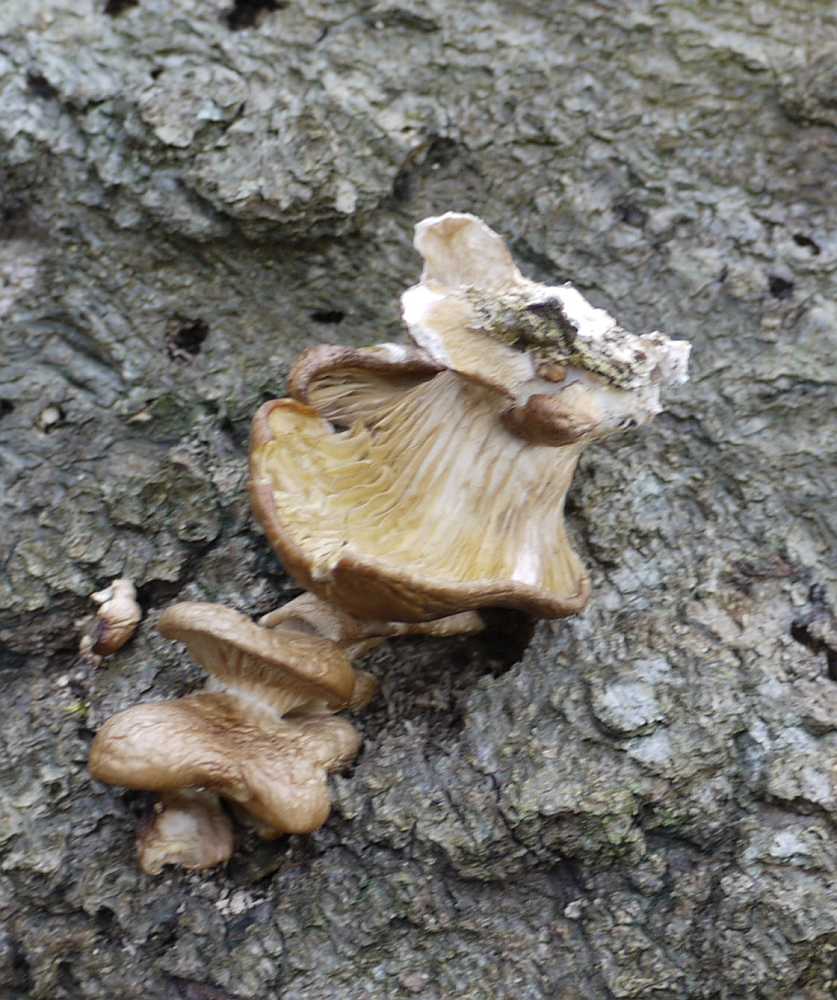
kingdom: Fungi
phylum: Basidiomycota
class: Agaricomycetes
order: Agaricales
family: Pleurotaceae
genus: Pleurotus
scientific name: Pleurotus ostreatus
